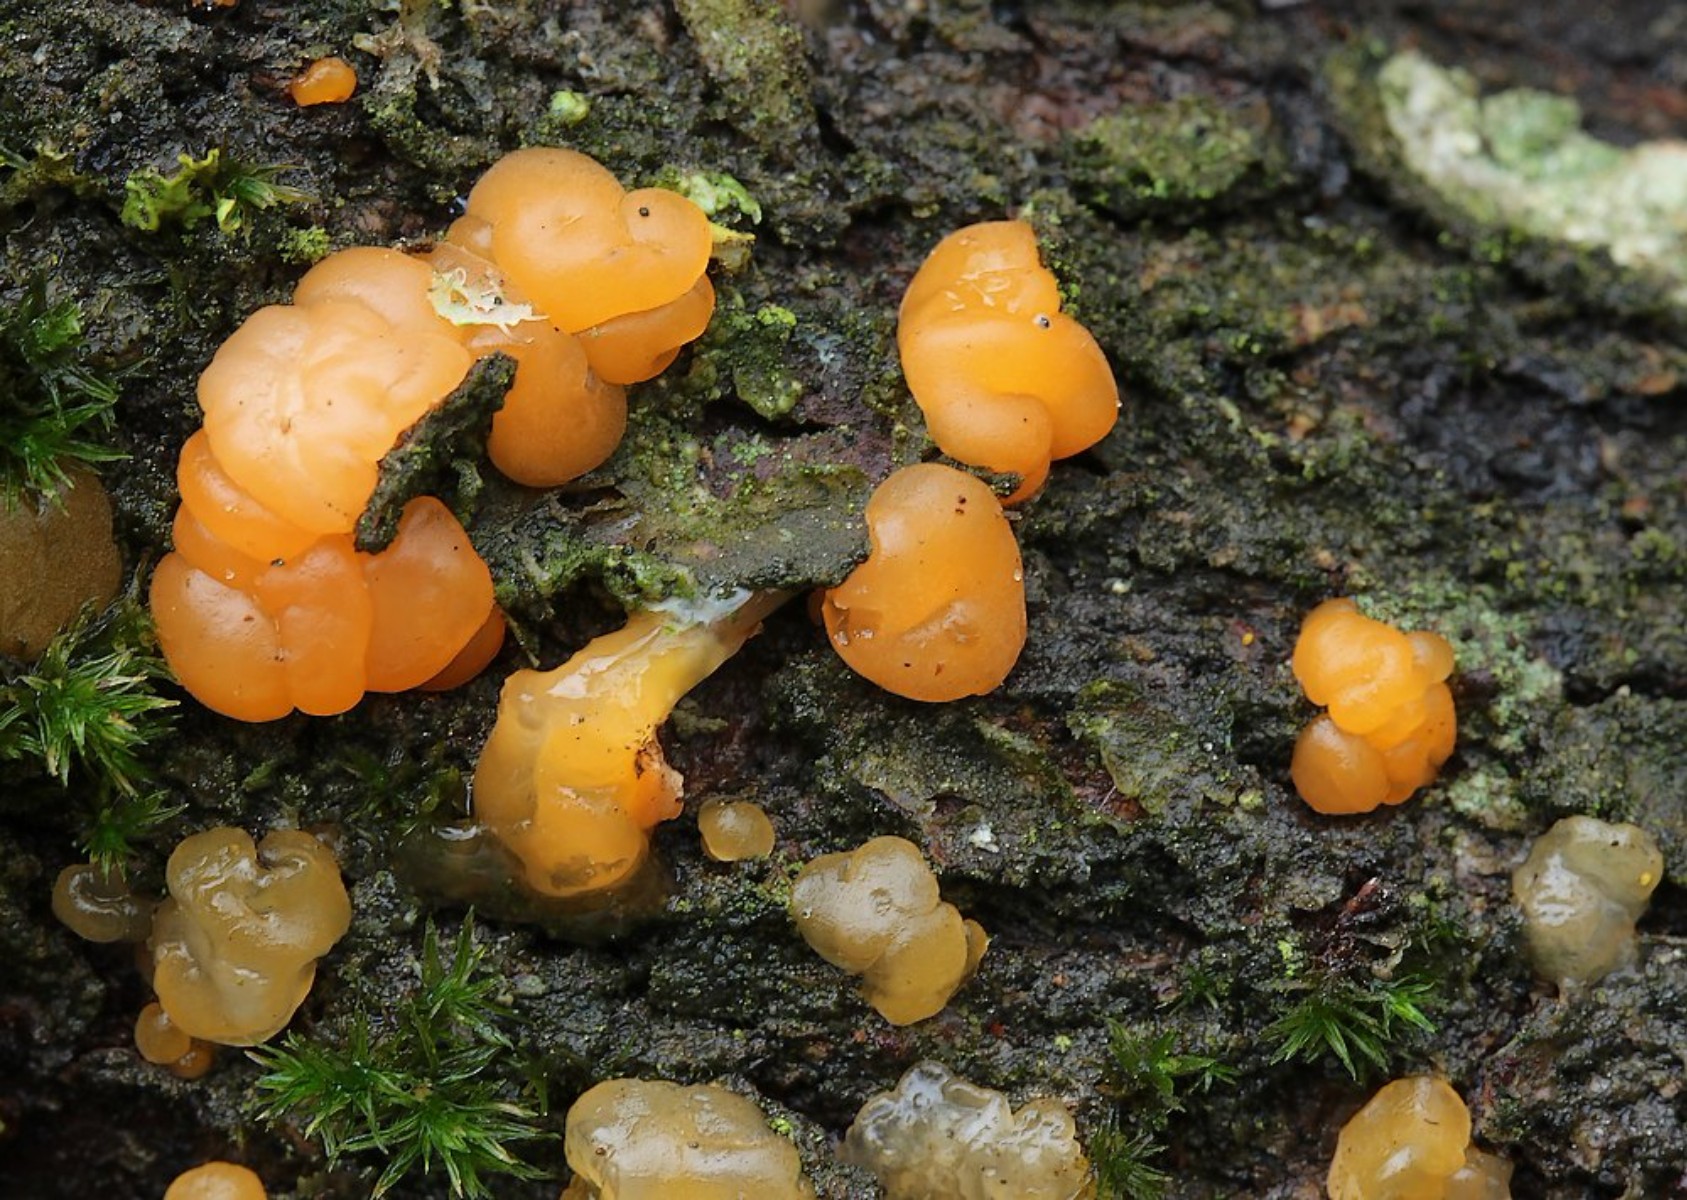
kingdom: Fungi
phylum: Basidiomycota
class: Dacrymycetes
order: Dacrymycetales
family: Dacrymycetaceae
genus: Dacrymyces
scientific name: Dacrymyces lacrymalis
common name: rynket tåresvamp
